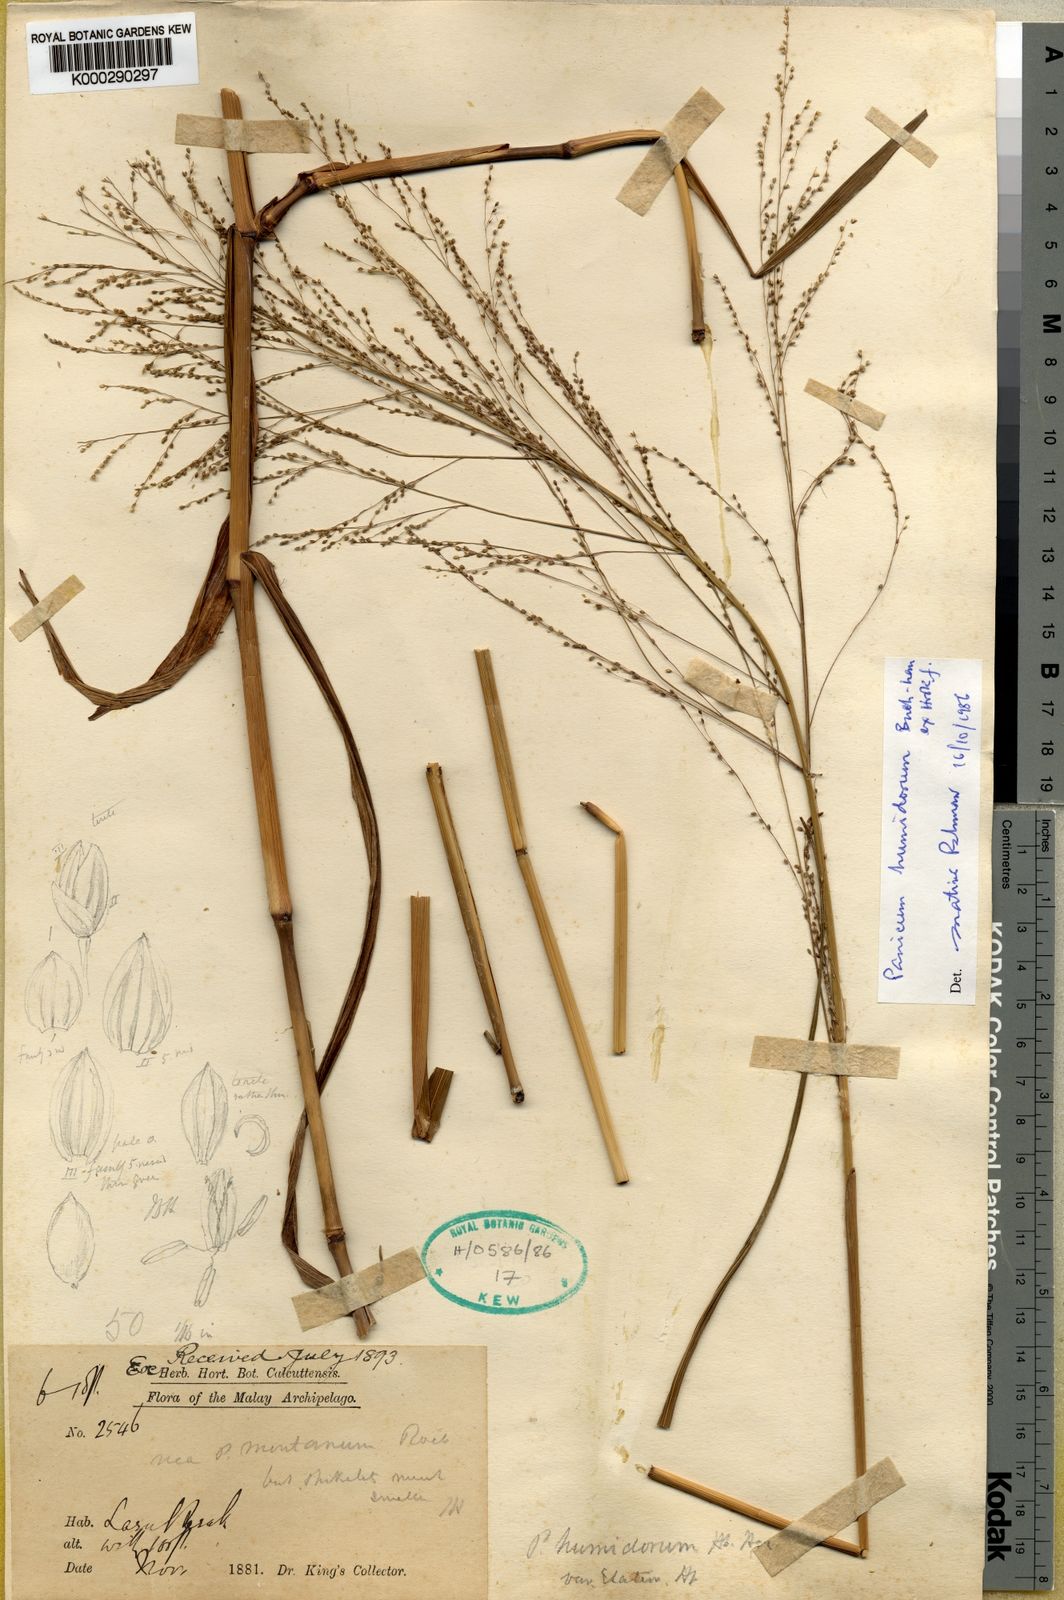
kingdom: Plantae
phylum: Tracheophyta
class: Liliopsida
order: Poales
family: Poaceae
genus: Panicum
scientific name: Panicum humidorum
